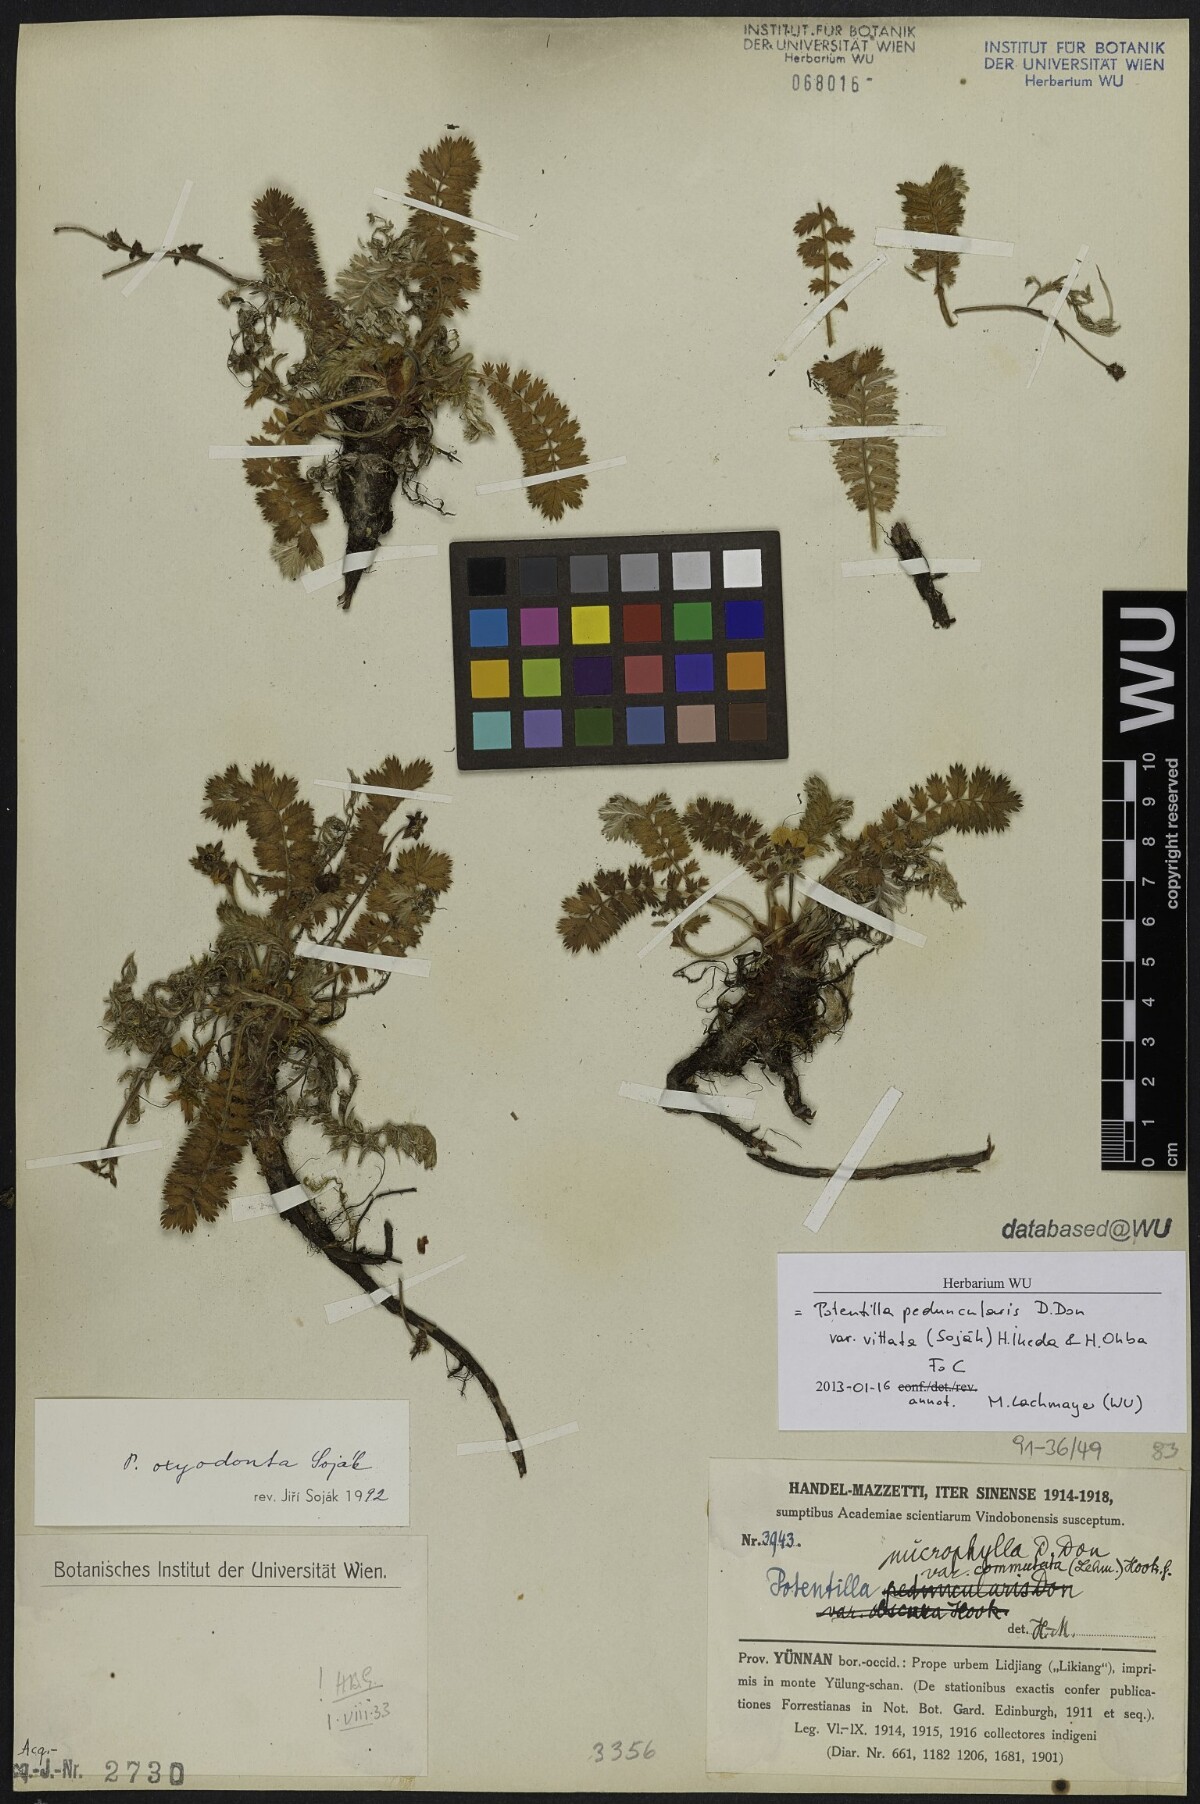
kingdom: Plantae
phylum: Tracheophyta
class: Magnoliopsida
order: Rosales
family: Rosaceae
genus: Argentina
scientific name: Argentina vittata
